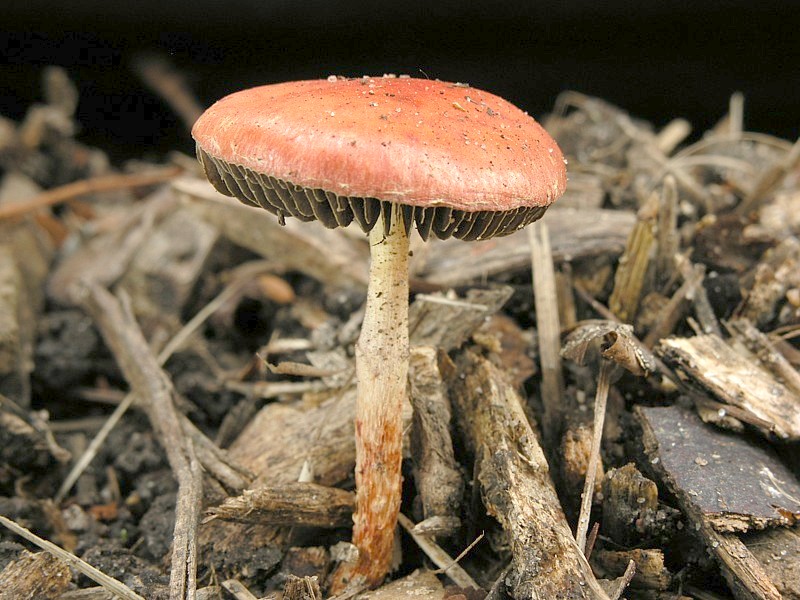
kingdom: Fungi
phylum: Basidiomycota
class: Agaricomycetes
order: Agaricales
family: Hymenogastraceae
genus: Psilocybe
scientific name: Psilocybe aurantiaca
